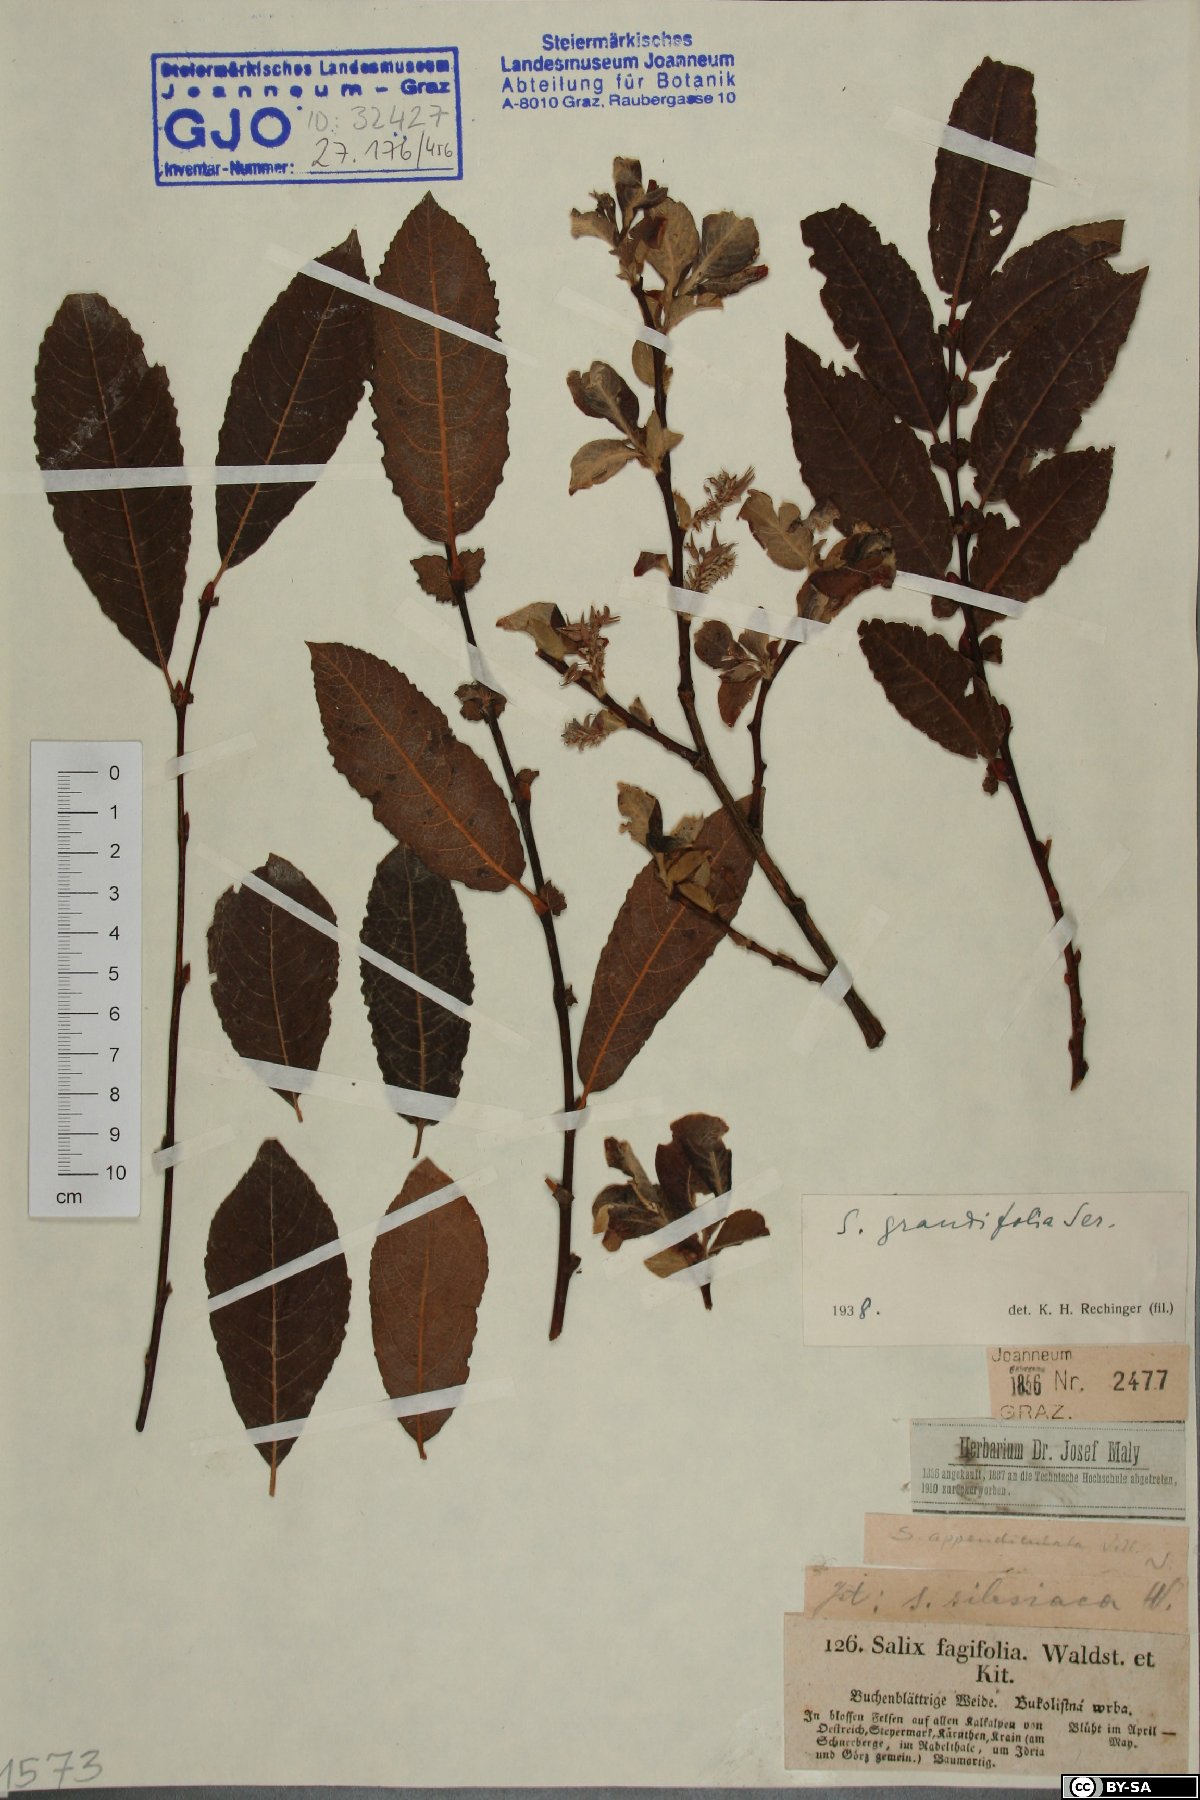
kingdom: Plantae
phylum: Tracheophyta
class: Magnoliopsida
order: Malpighiales
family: Salicaceae
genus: Salix
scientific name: Salix appendiculata
